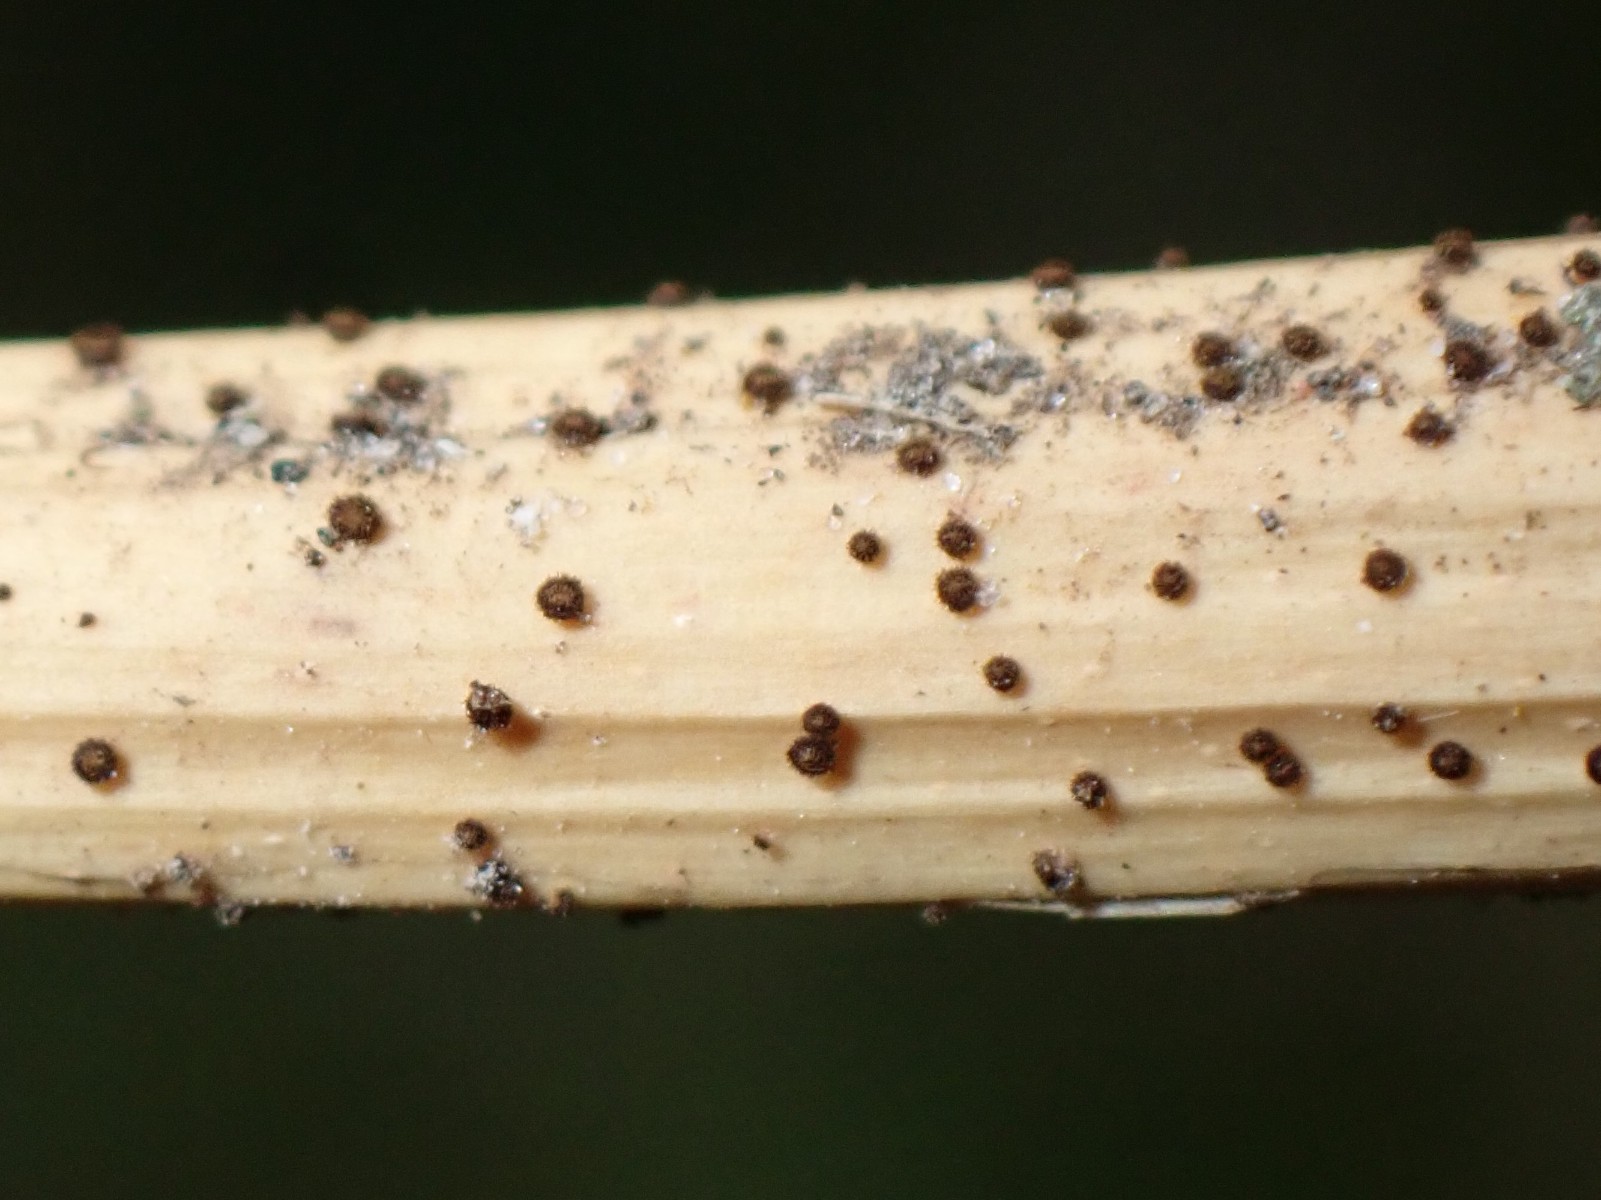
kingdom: Fungi
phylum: Ascomycota
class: Leotiomycetes
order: Helotiales
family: Solenopeziaceae
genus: Lasiobelonium
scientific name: Lasiobelonium nidulus
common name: rede-frynseskive
